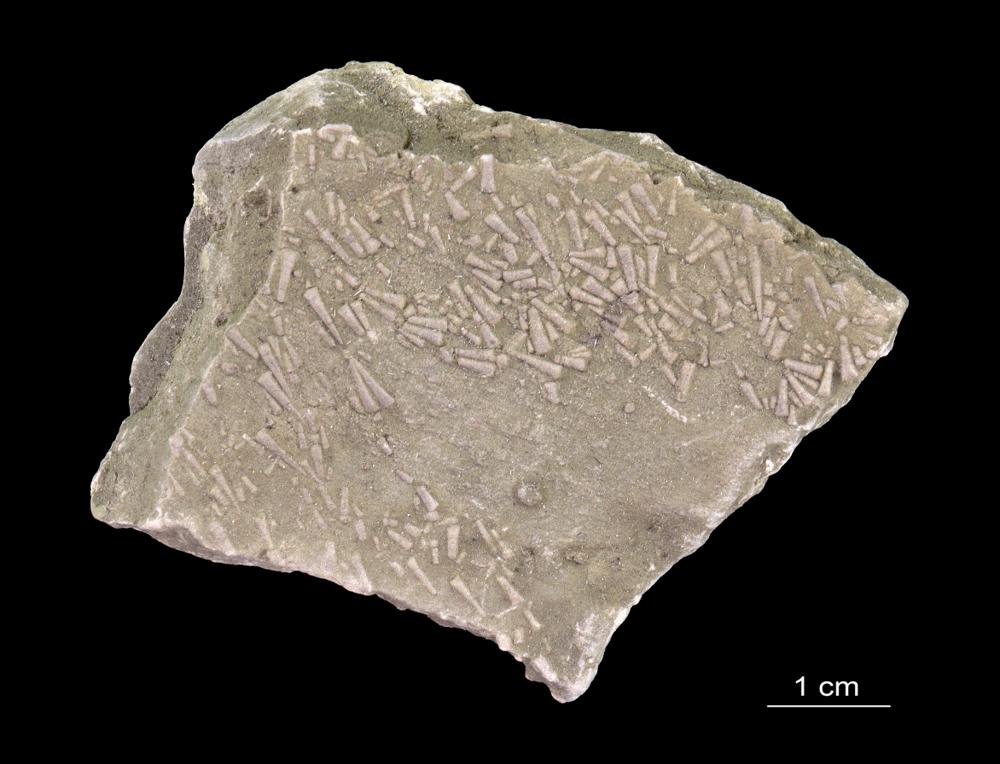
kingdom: Animalia
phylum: Annelida
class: Polychaeta
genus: Volborthella
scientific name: Volborthella tenuis
